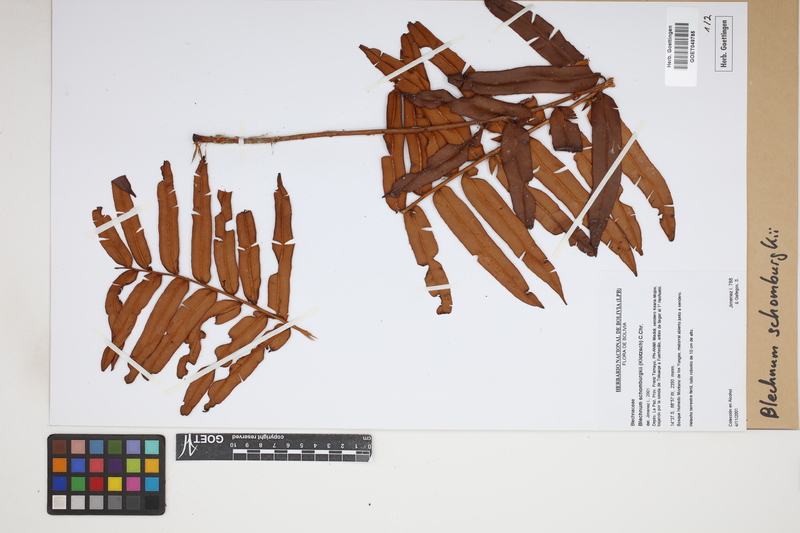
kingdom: Plantae
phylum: Tracheophyta
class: Polypodiopsida
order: Polypodiales
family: Blechnaceae
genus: Lomariocycas
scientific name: Lomariocycas schomburgkii
